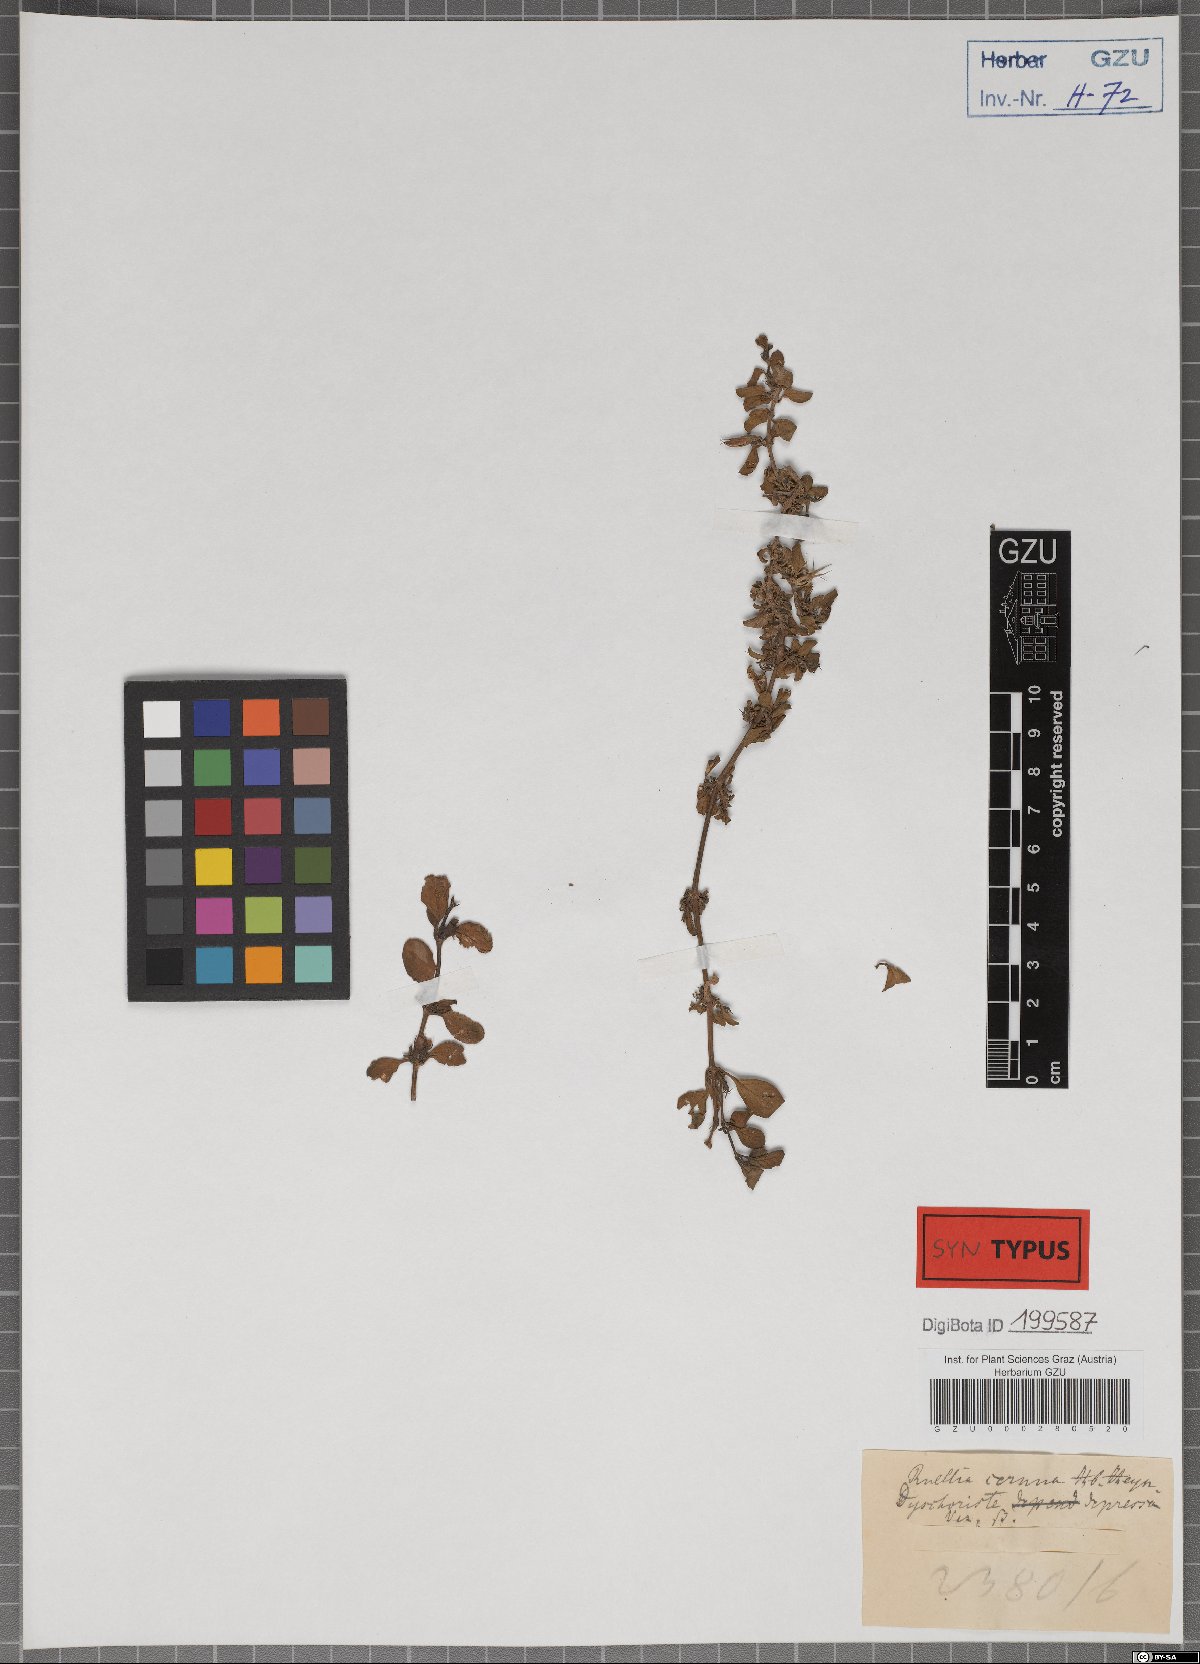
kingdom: Plantae
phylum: Tracheophyta
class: Magnoliopsida
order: Lamiales
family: Acanthaceae
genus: Hygrophila
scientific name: Hygrophila erecta
